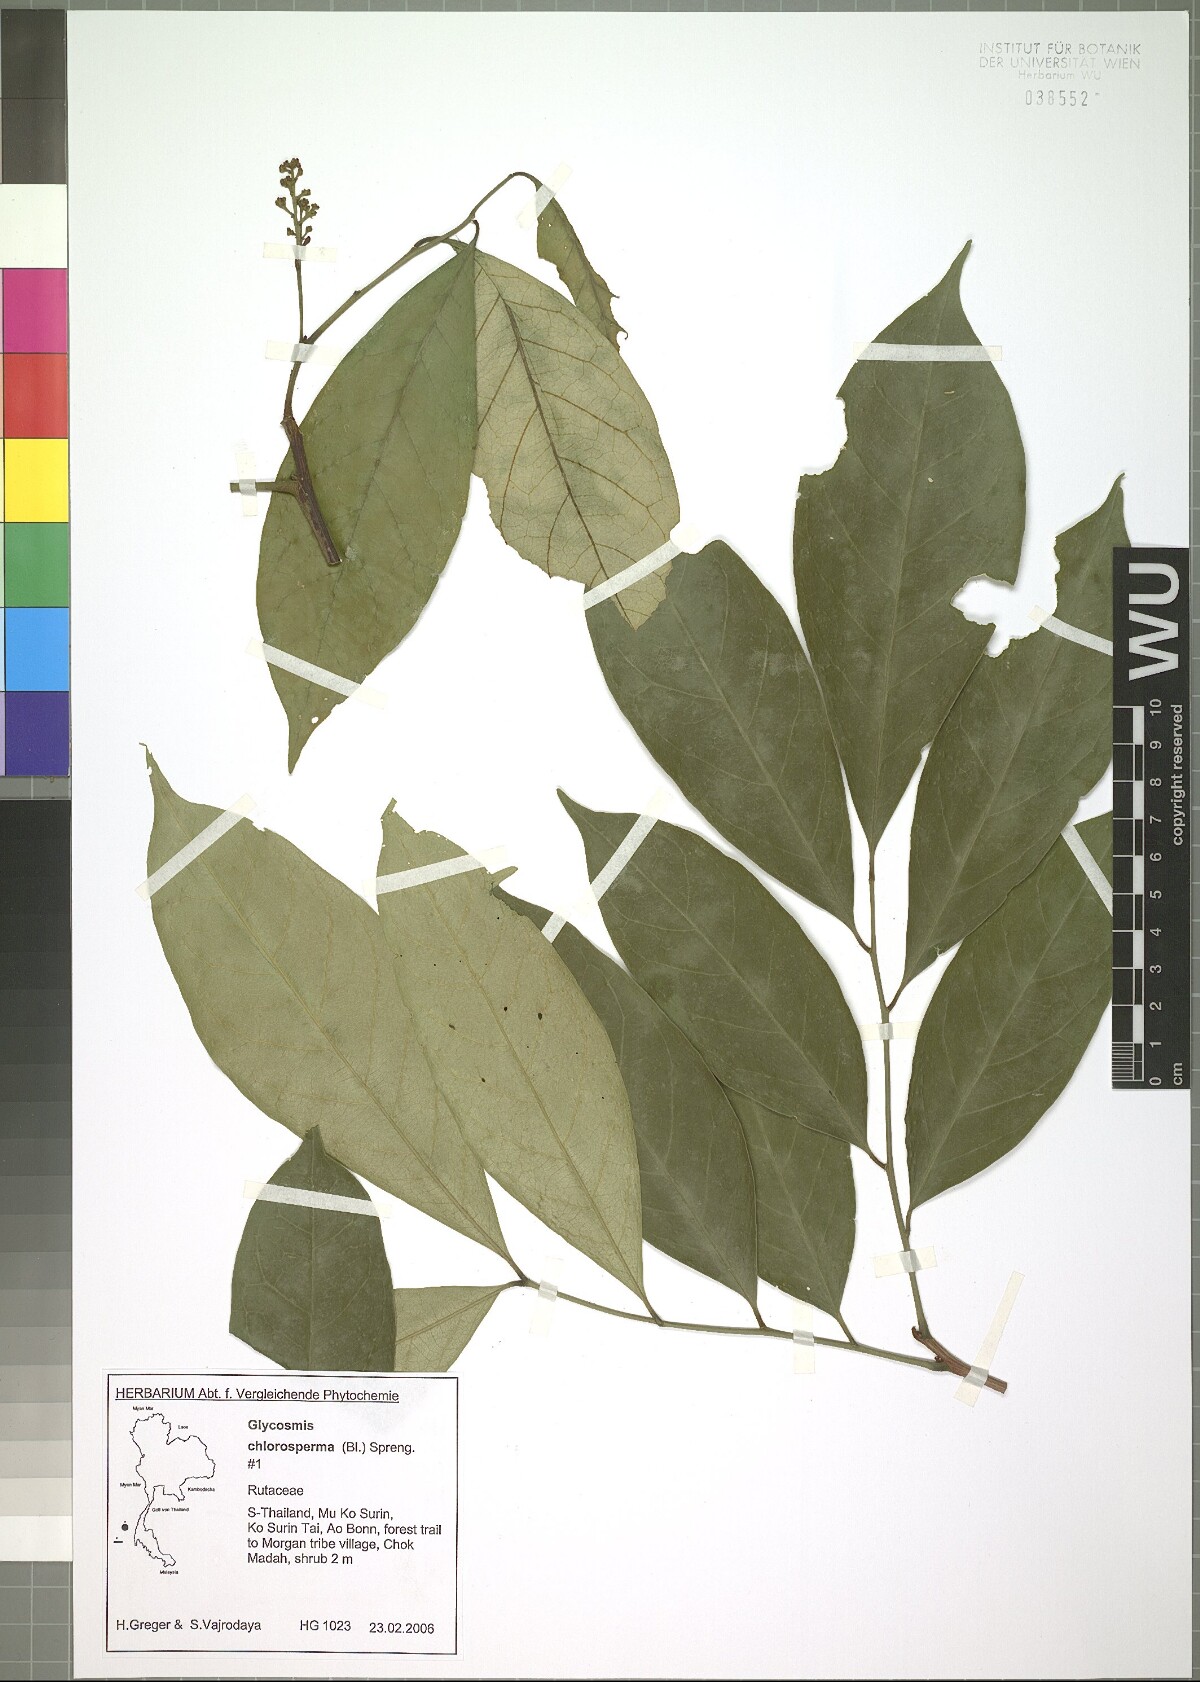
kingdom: Plantae
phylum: Tracheophyta
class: Magnoliopsida
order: Sapindales
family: Rutaceae
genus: Glycosmis
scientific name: Glycosmis chlorosperma
